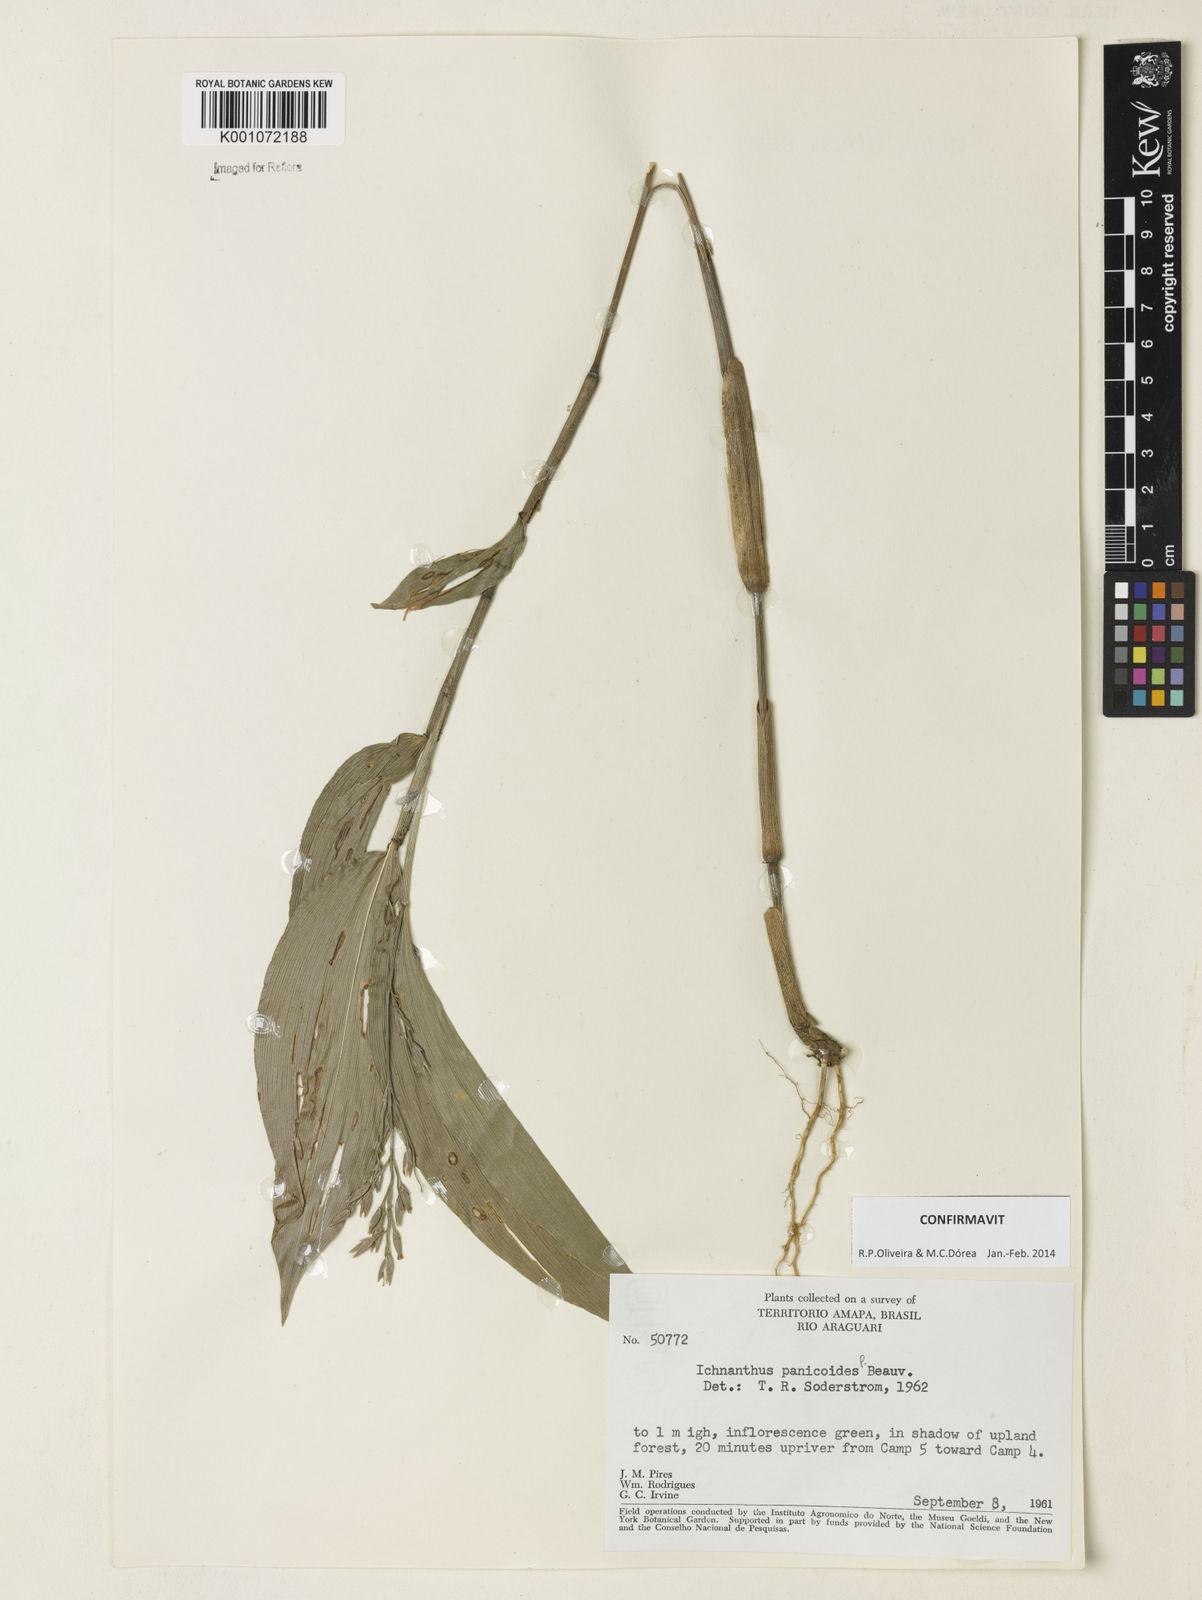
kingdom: Plantae
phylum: Tracheophyta
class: Liliopsida
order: Poales
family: Poaceae
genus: Ichnanthus
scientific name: Ichnanthus panicoides
